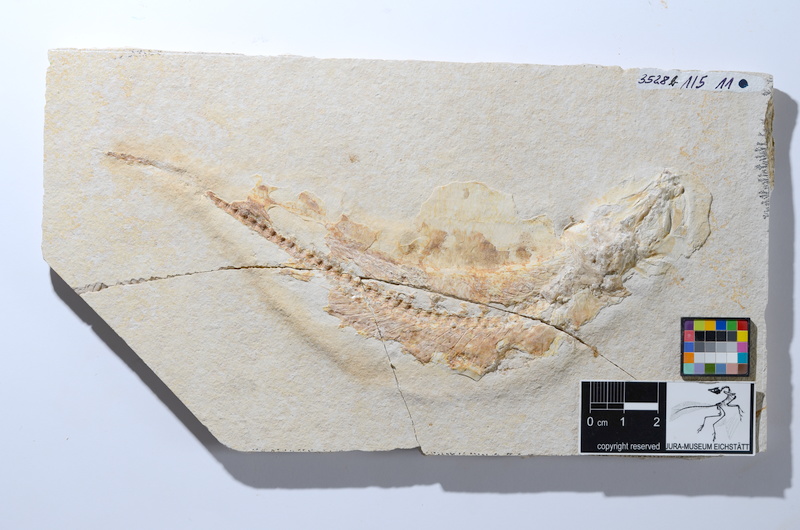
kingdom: Animalia
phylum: Chordata
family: Ascalaboidae
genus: Tharsis
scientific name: Tharsis dubius
